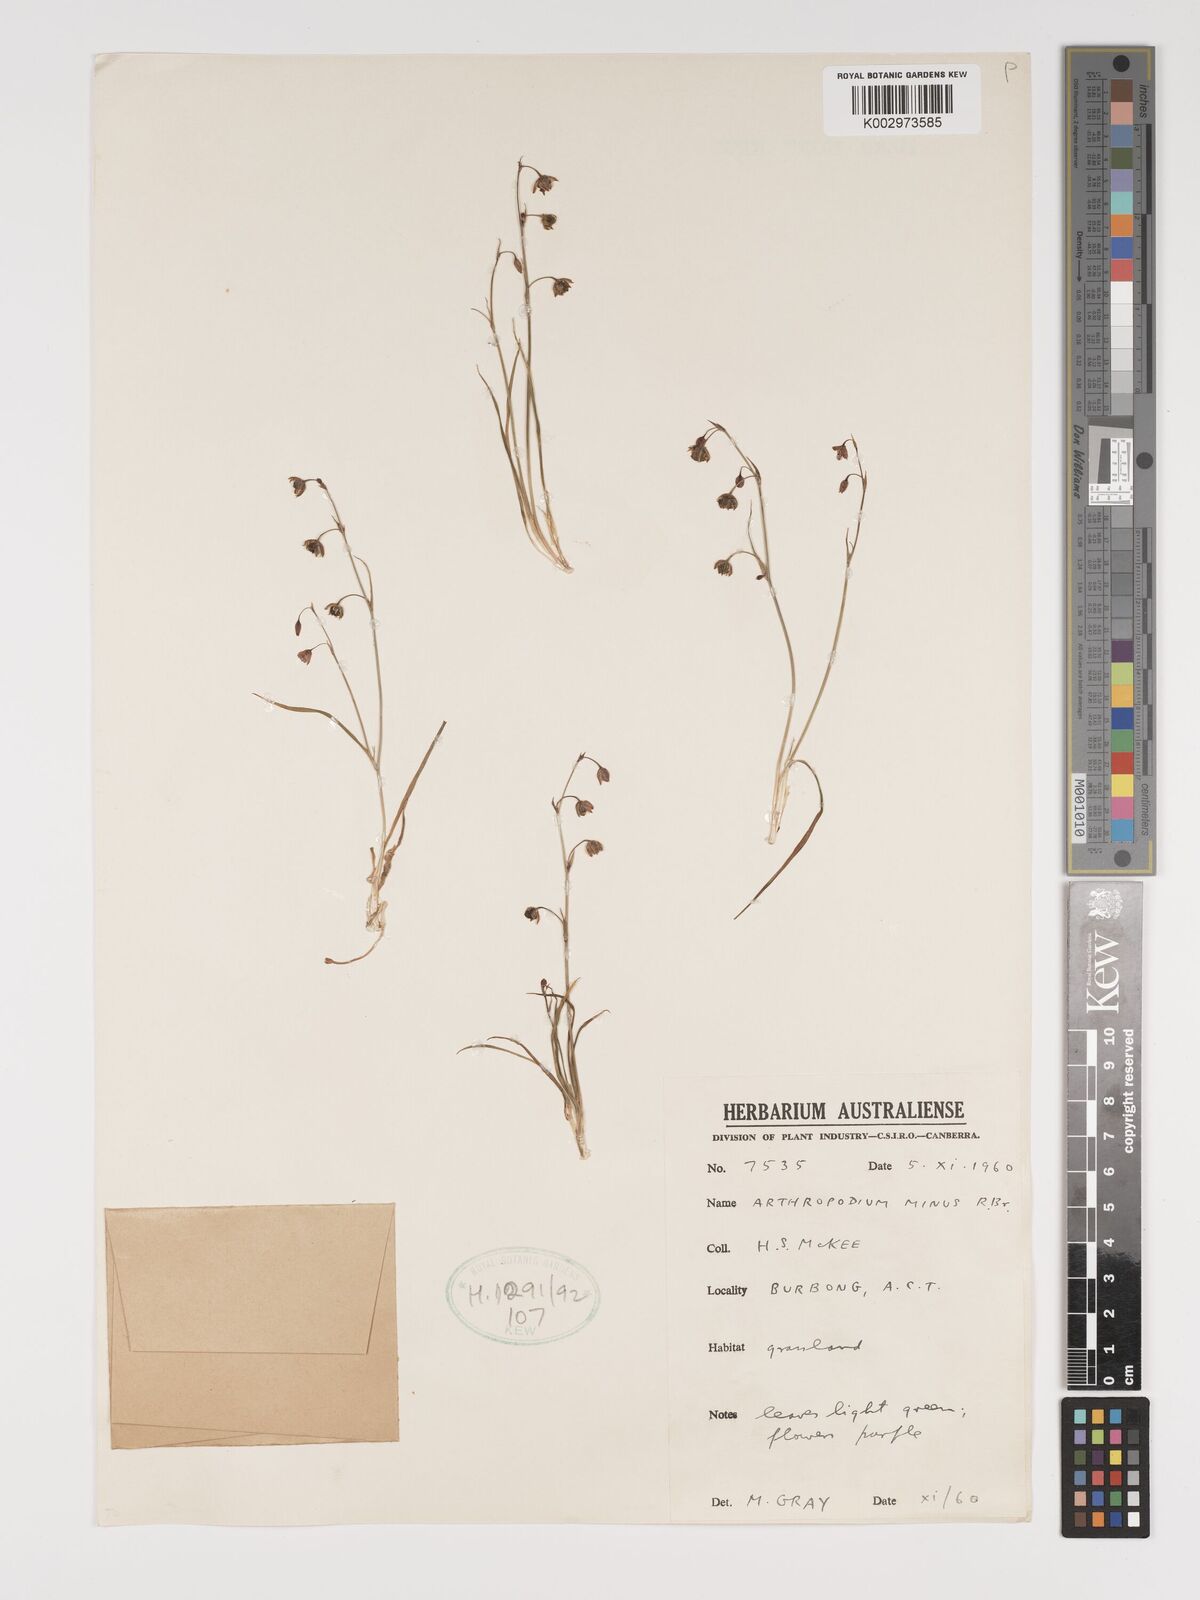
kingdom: Plantae
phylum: Tracheophyta
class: Liliopsida
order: Asparagales
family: Asparagaceae
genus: Arthropodium
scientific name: Arthropodium minus
